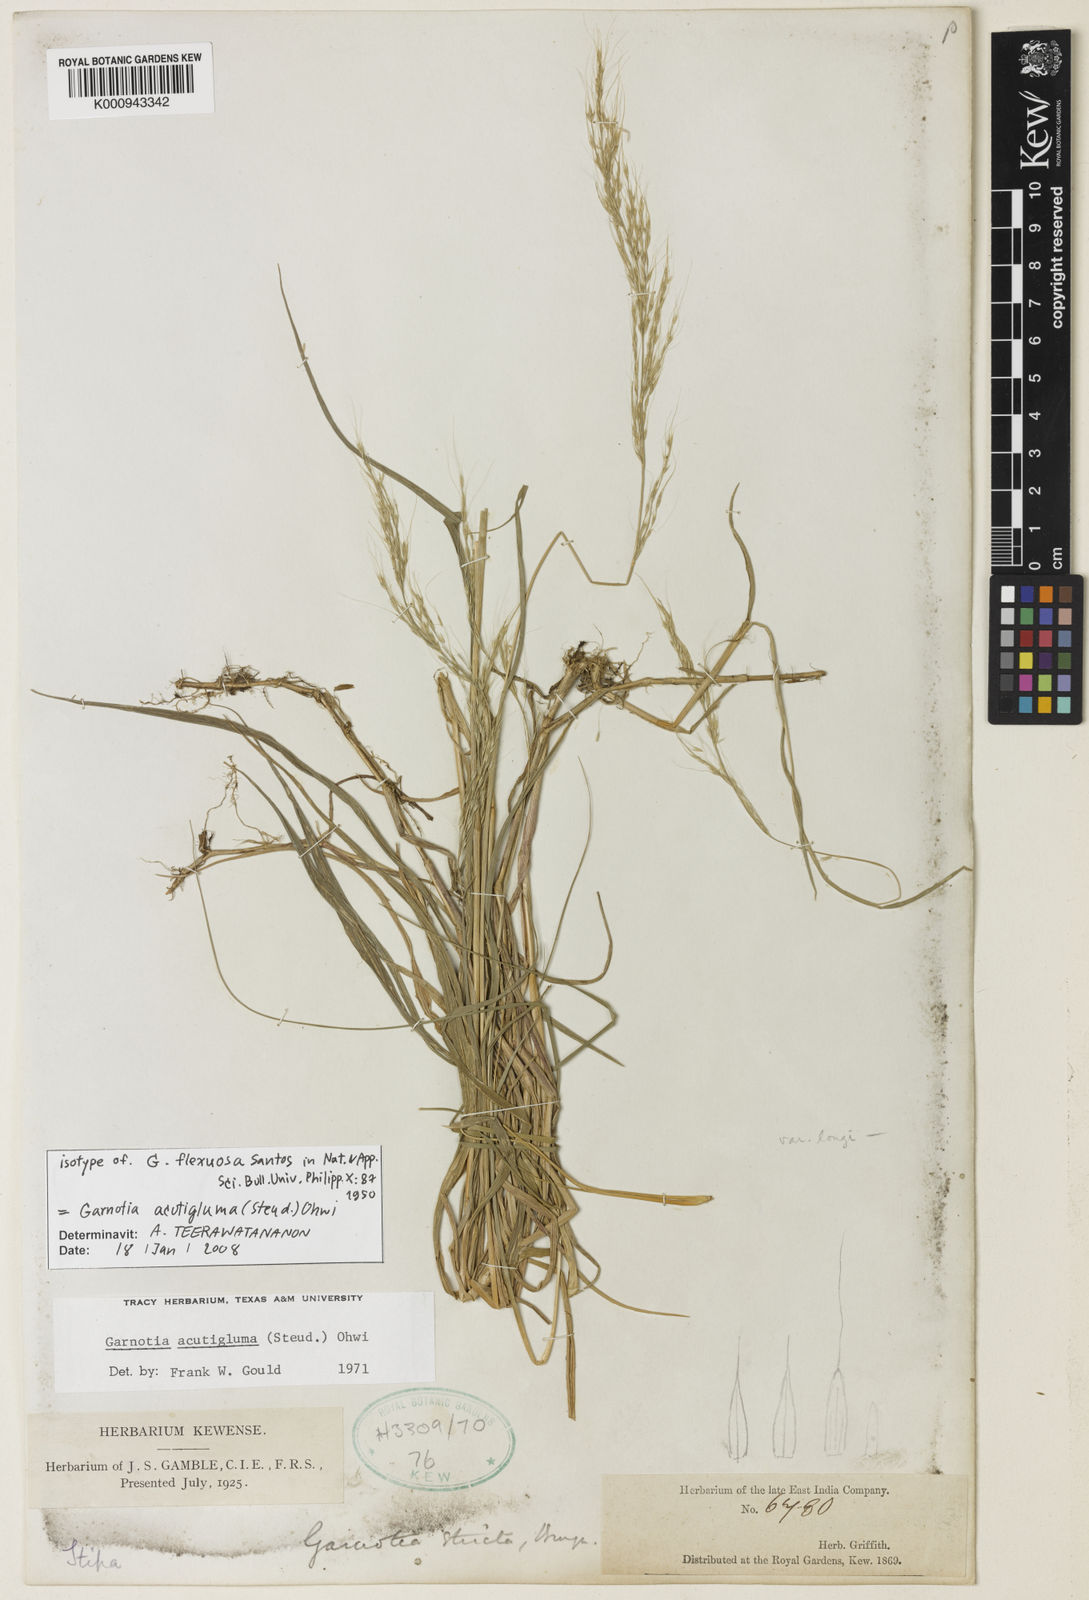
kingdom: Plantae
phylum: Tracheophyta
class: Liliopsida
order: Poales
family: Poaceae
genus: Garnotia
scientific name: Garnotia stricta
